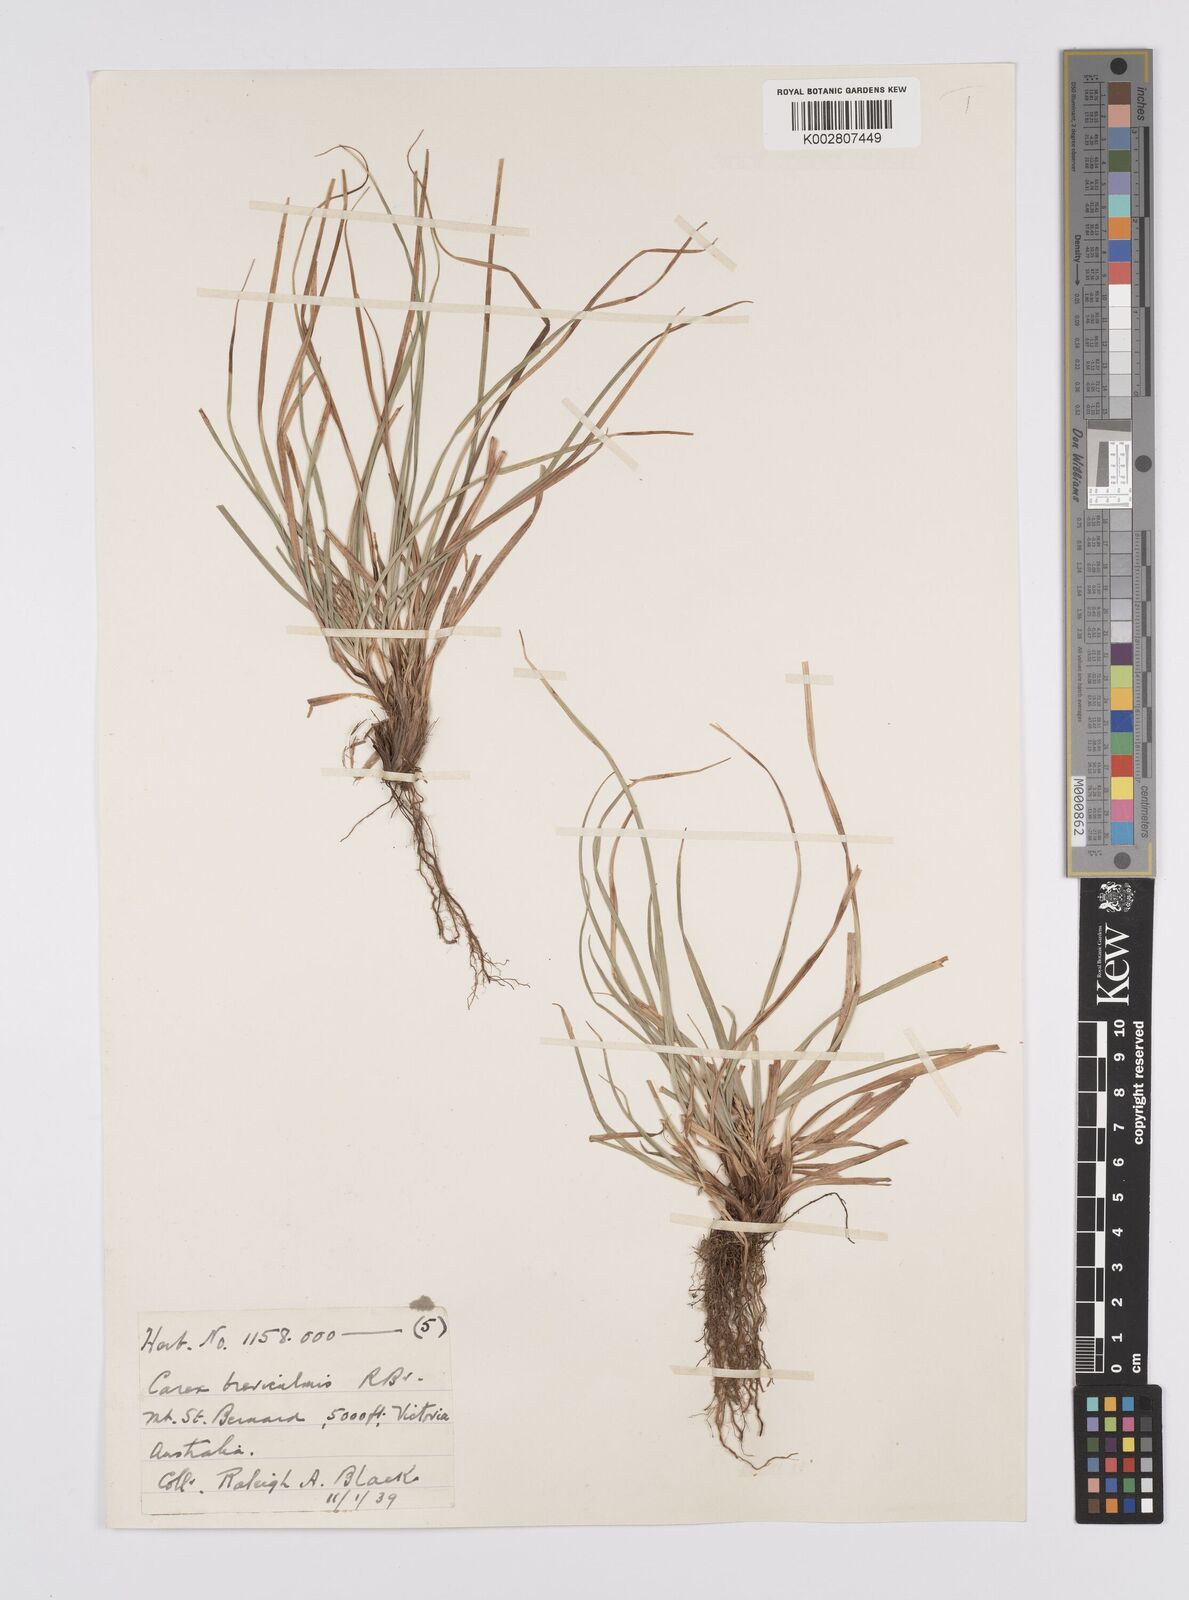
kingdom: Plantae
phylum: Tracheophyta
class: Liliopsida
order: Poales
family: Cyperaceae
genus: Carex
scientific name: Carex breviculmis
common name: Asian shortstem sedge
